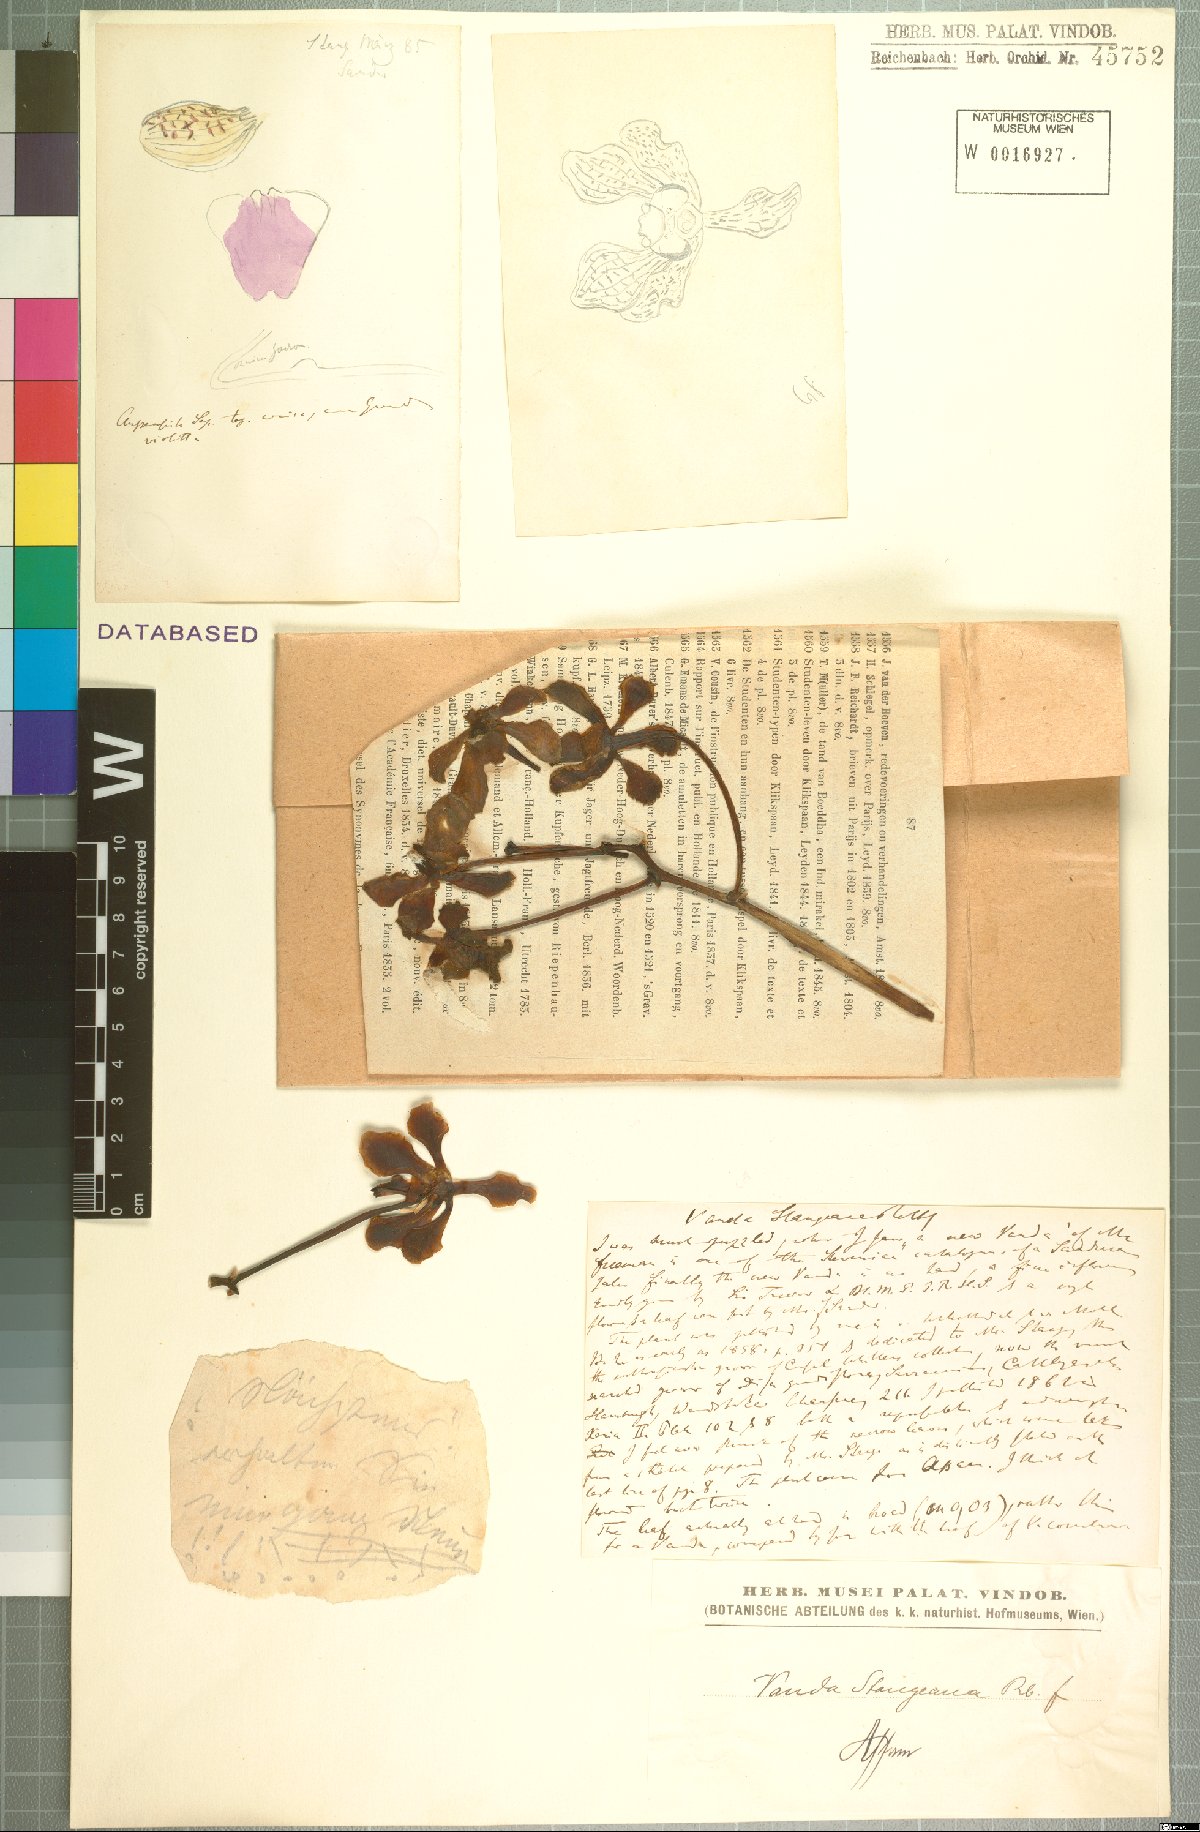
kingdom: Plantae
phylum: Tracheophyta
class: Liliopsida
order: Asparagales
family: Orchidaceae
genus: Vanda
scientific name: Vanda stangeana
